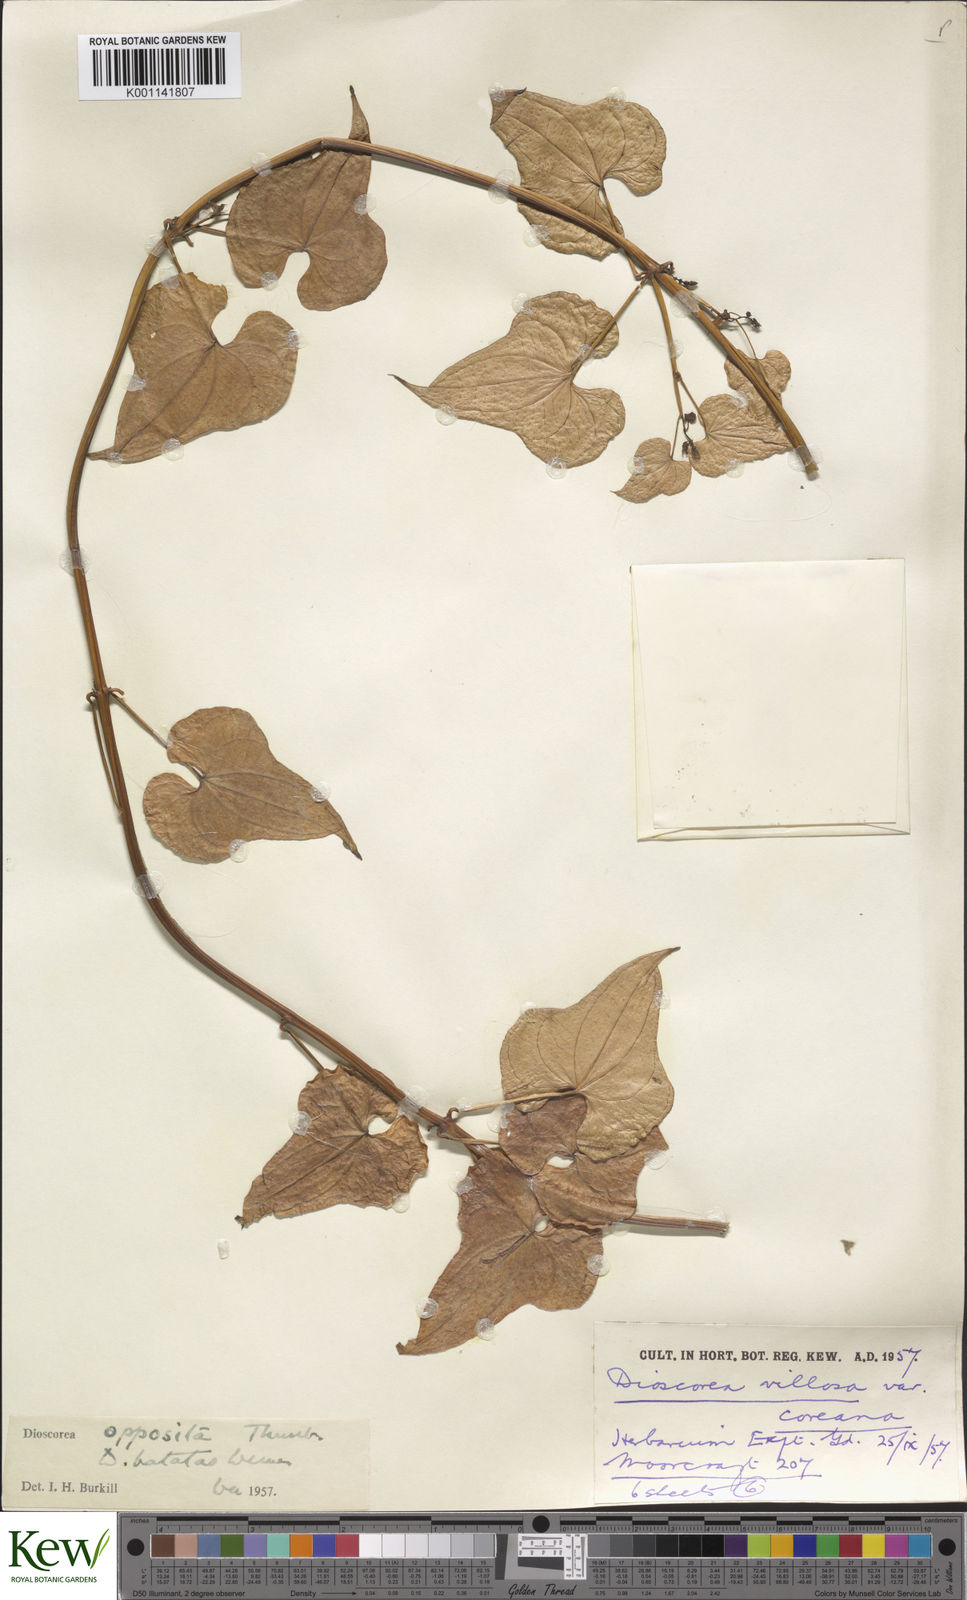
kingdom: Plantae
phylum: Tracheophyta
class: Liliopsida
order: Dioscoreales
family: Dioscoreaceae
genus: Dioscorea
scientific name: Dioscorea oppositifolia
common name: Chinese yam
